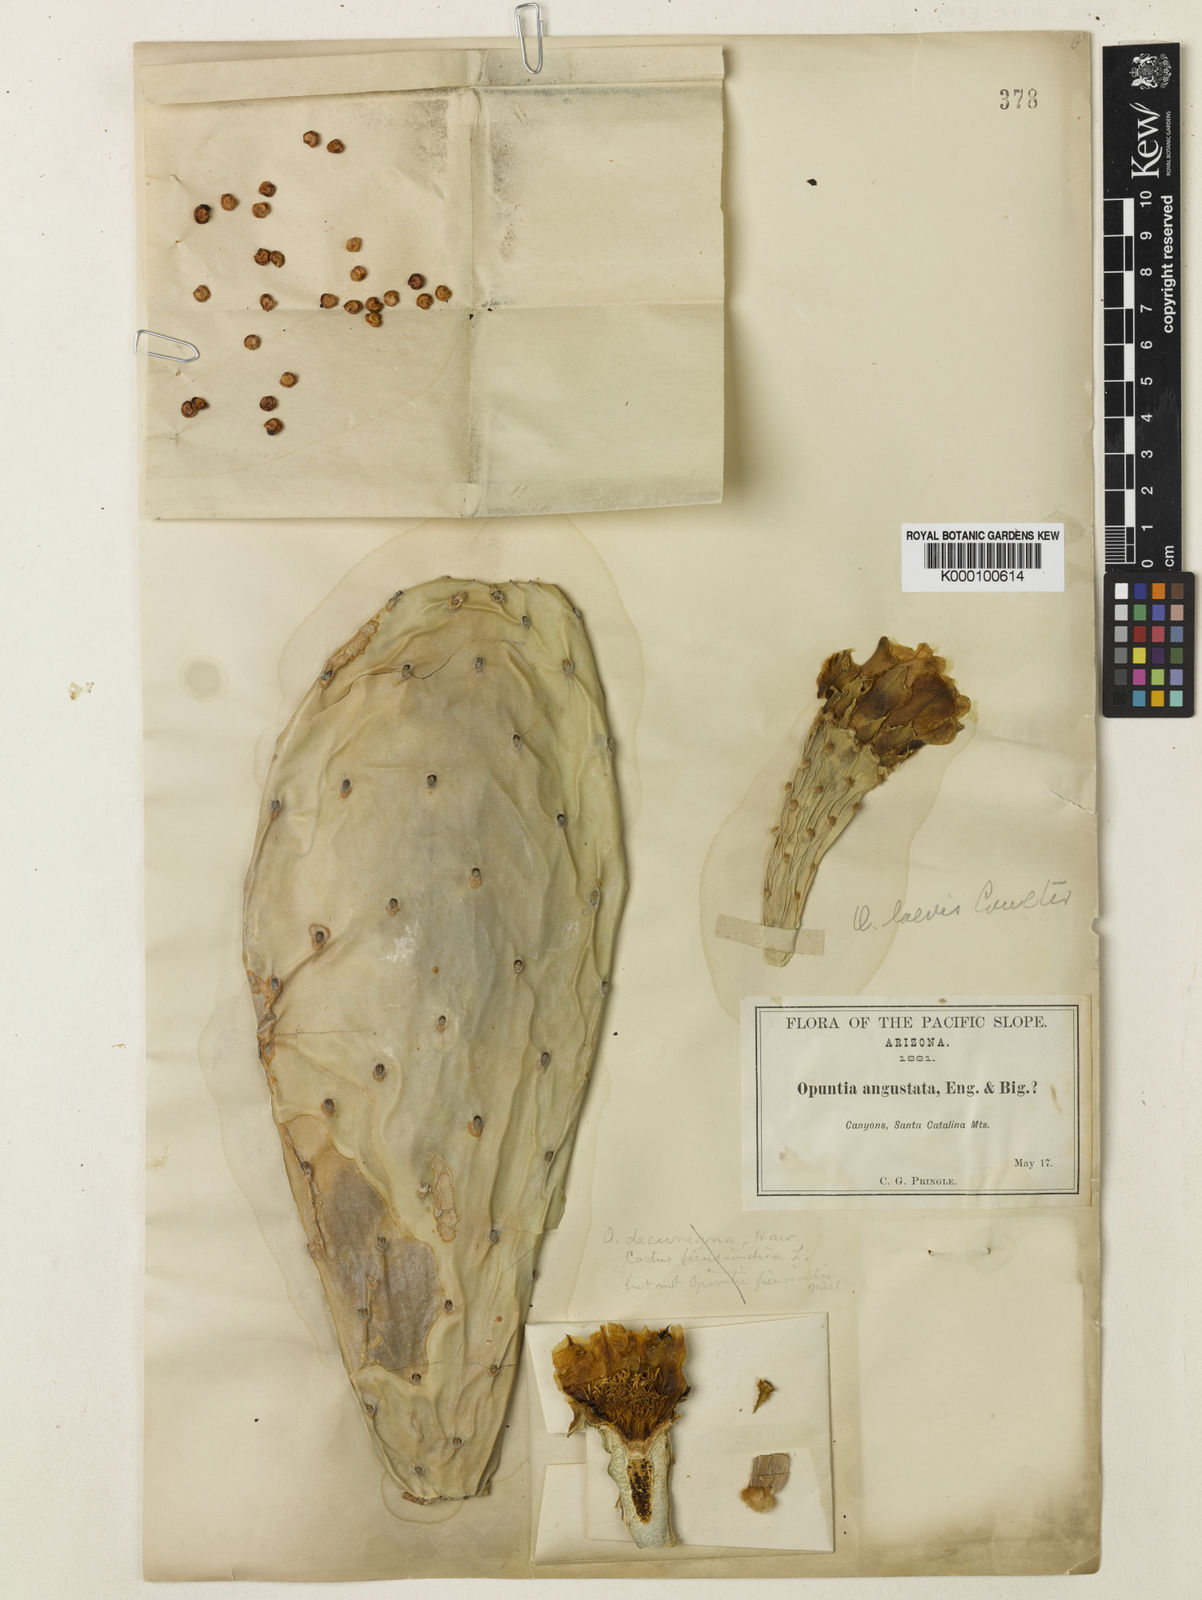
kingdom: Plantae
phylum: Tracheophyta
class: Magnoliopsida
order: Caryophyllales
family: Cactaceae
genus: Opuntia
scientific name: Opuntia engelmannii
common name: Cactus-apple
